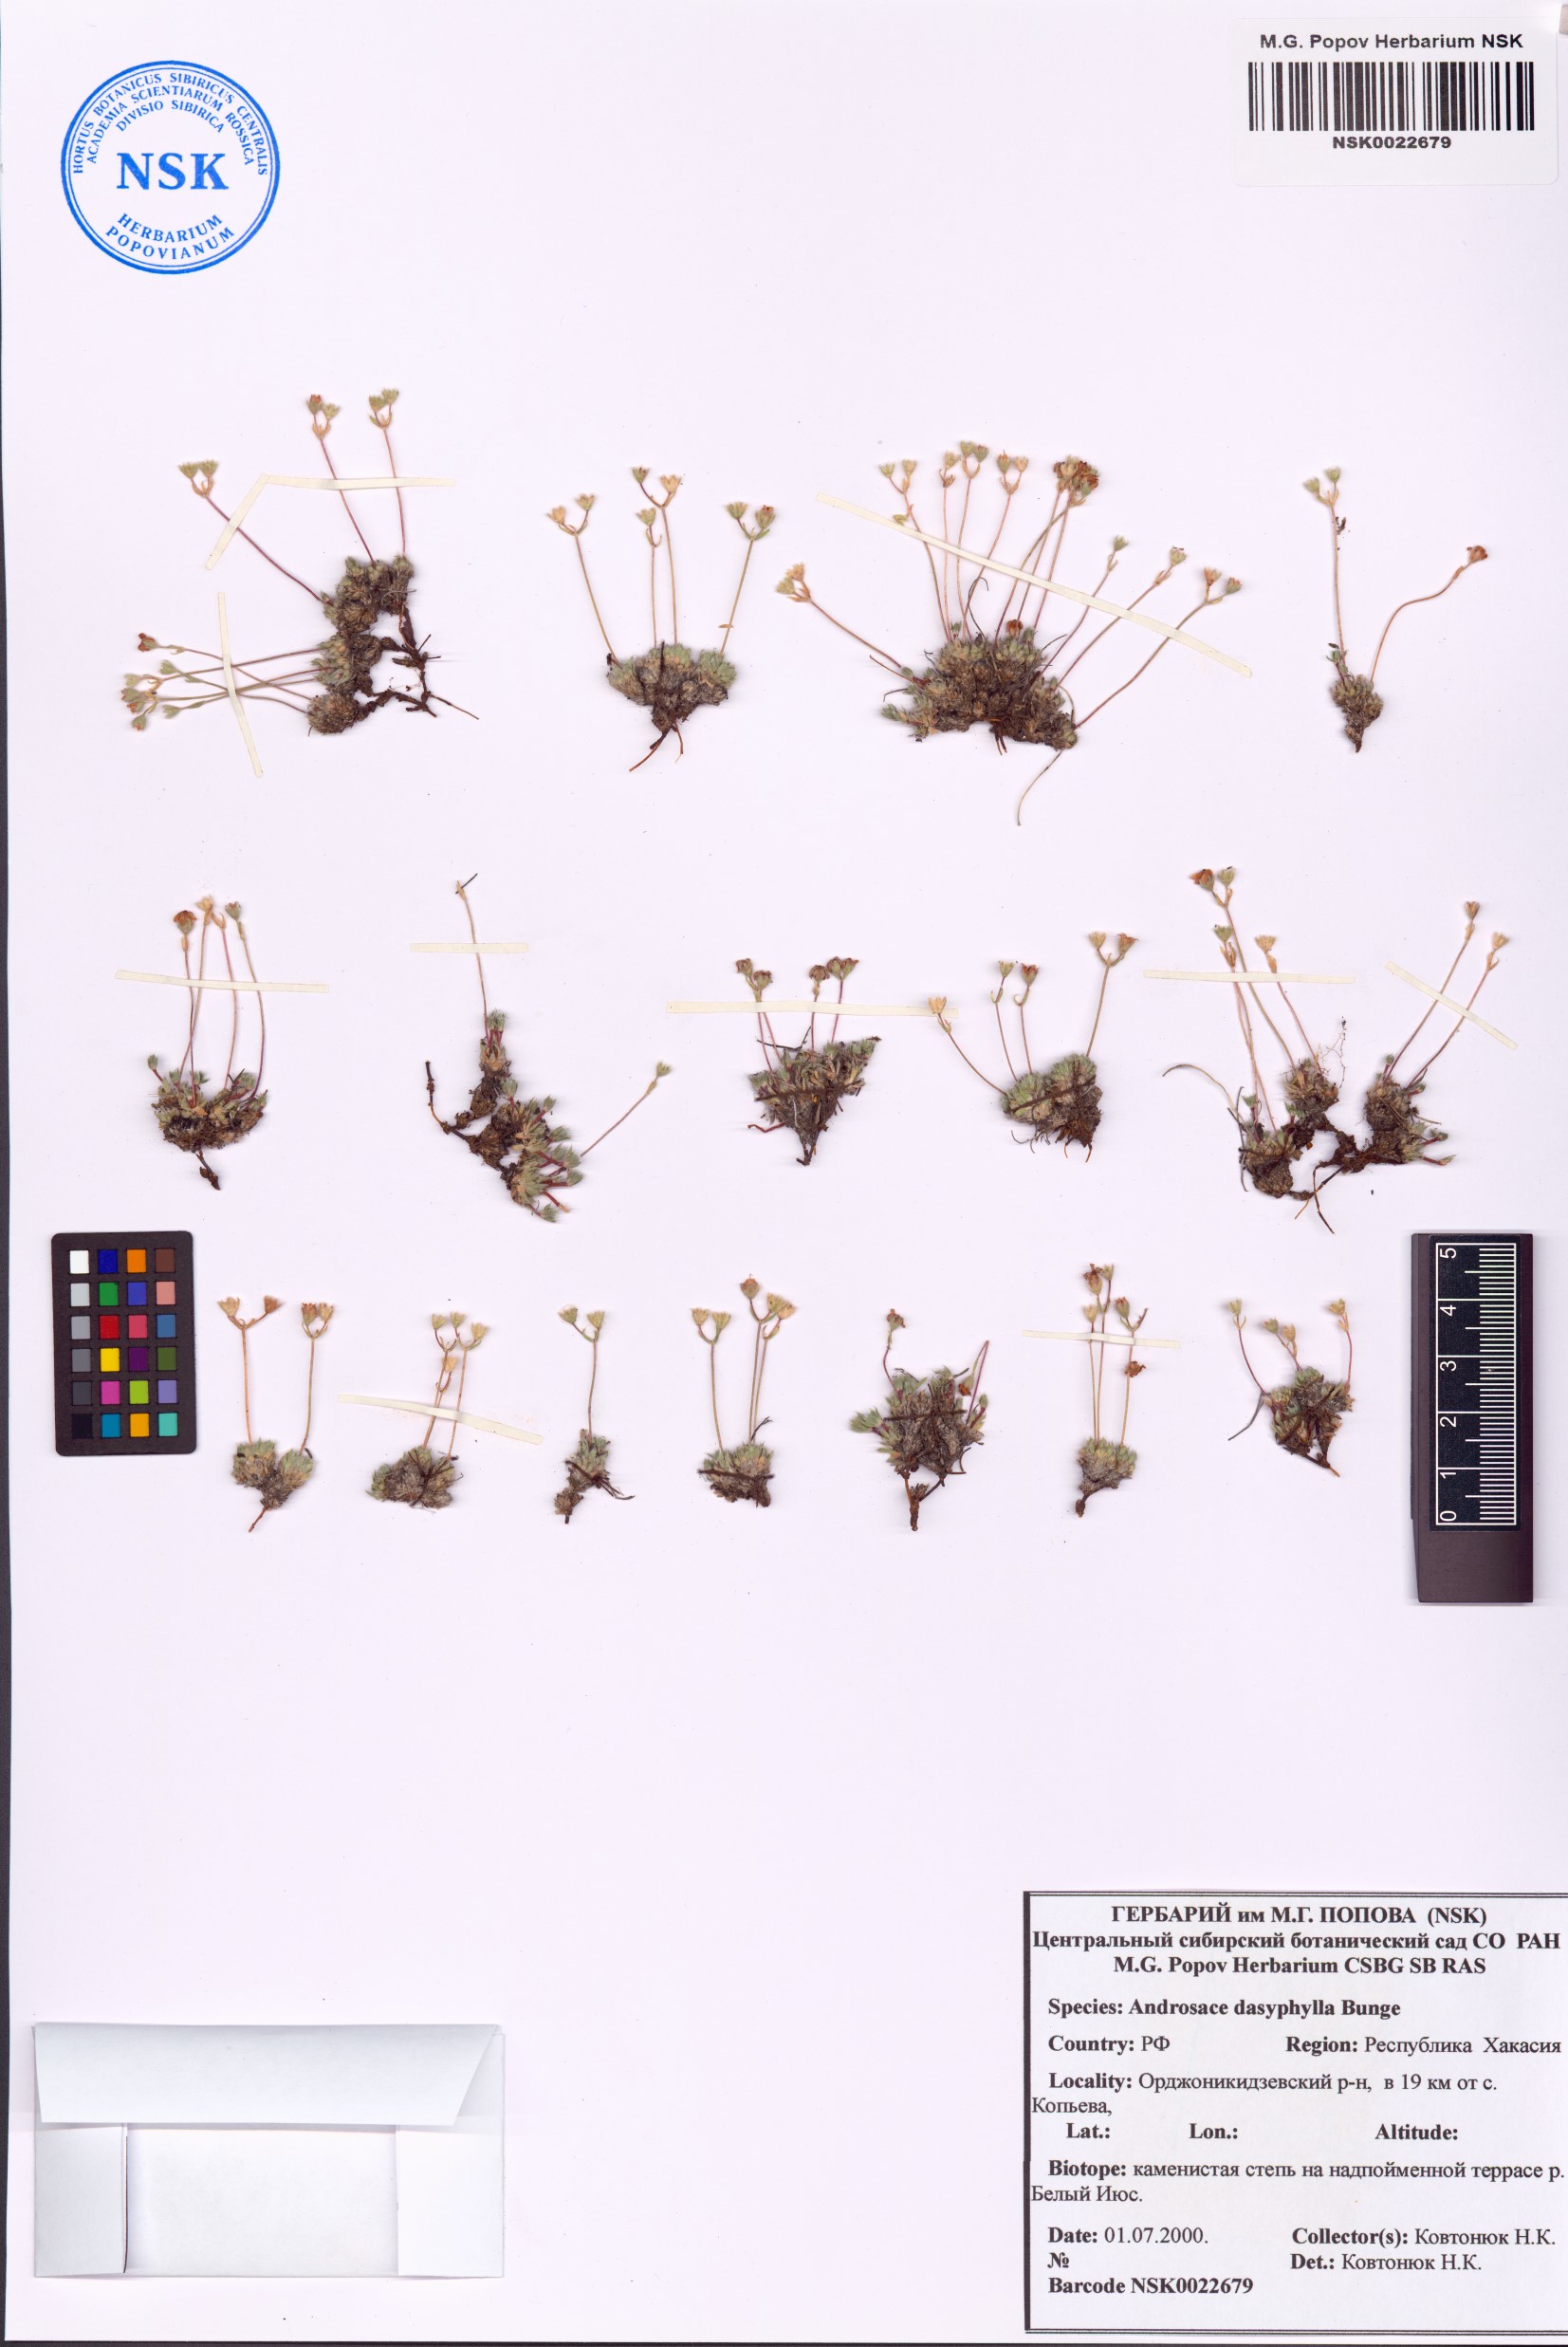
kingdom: Plantae
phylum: Tracheophyta
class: Magnoliopsida
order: Ericales
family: Primulaceae
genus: Androsace
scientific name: Androsace dasyphylla
